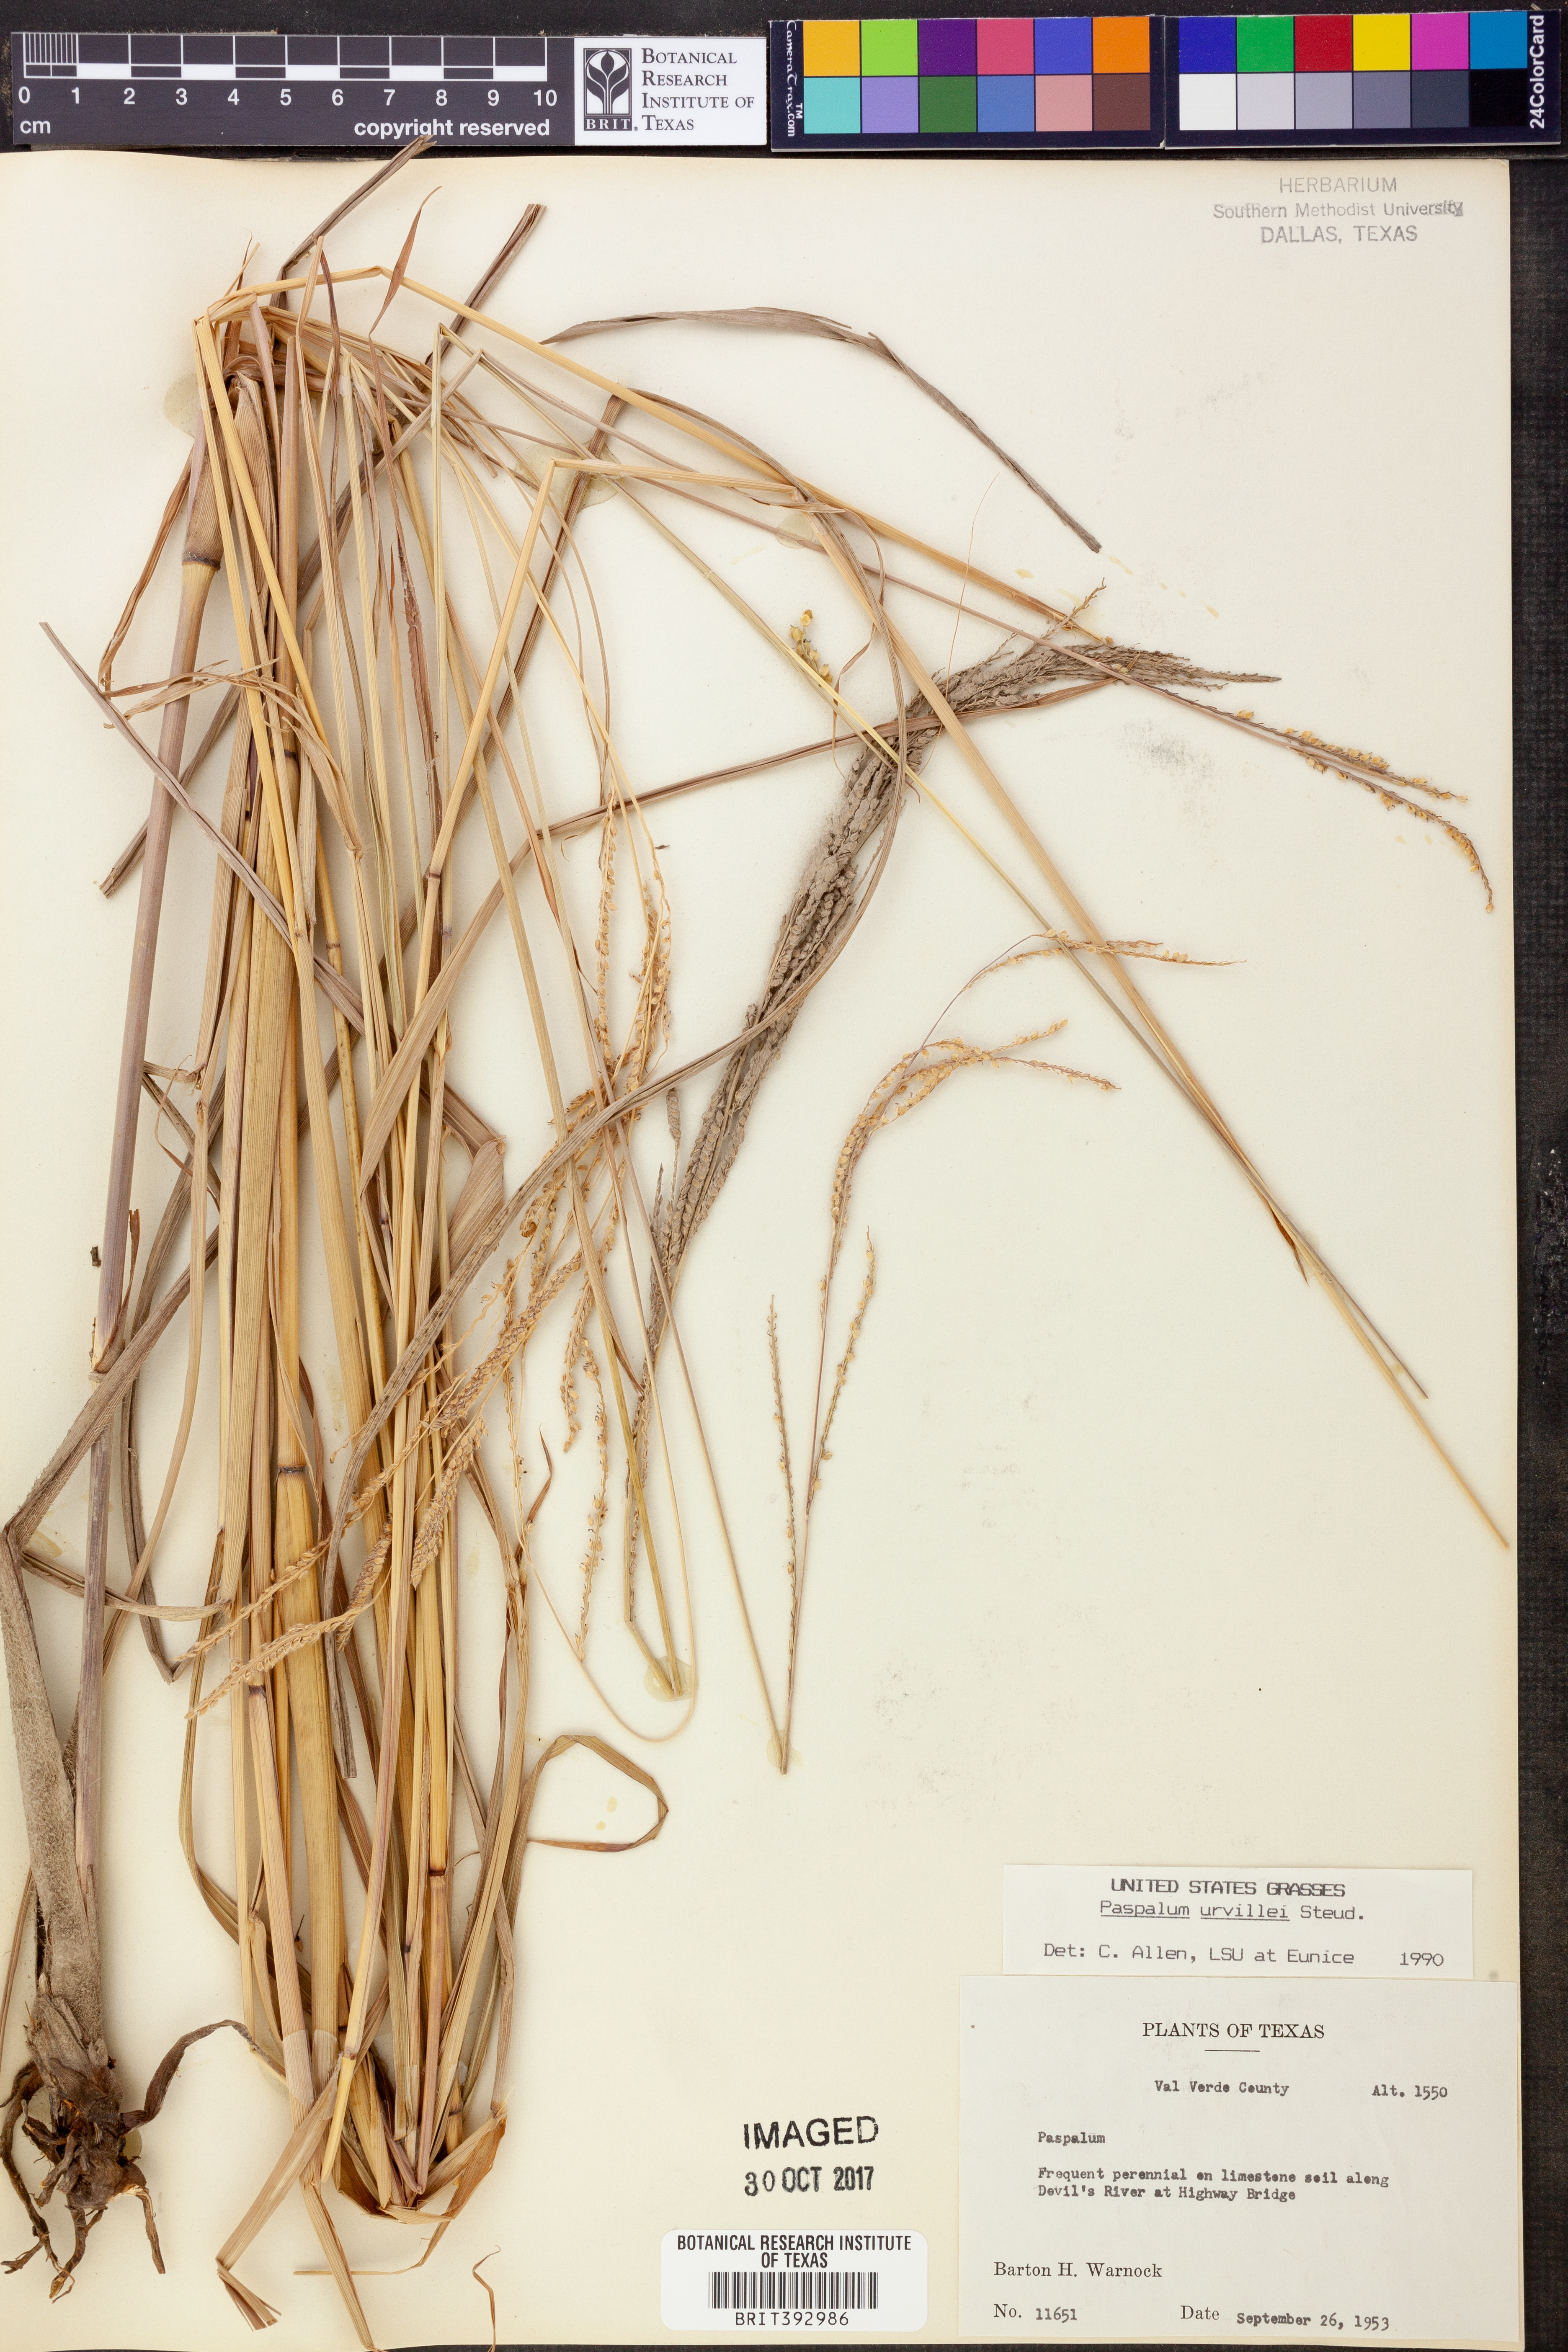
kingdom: Plantae
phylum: Tracheophyta
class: Liliopsida
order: Poales
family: Poaceae
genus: Paspalum
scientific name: Paspalum urvillei
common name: Vasey's grass
